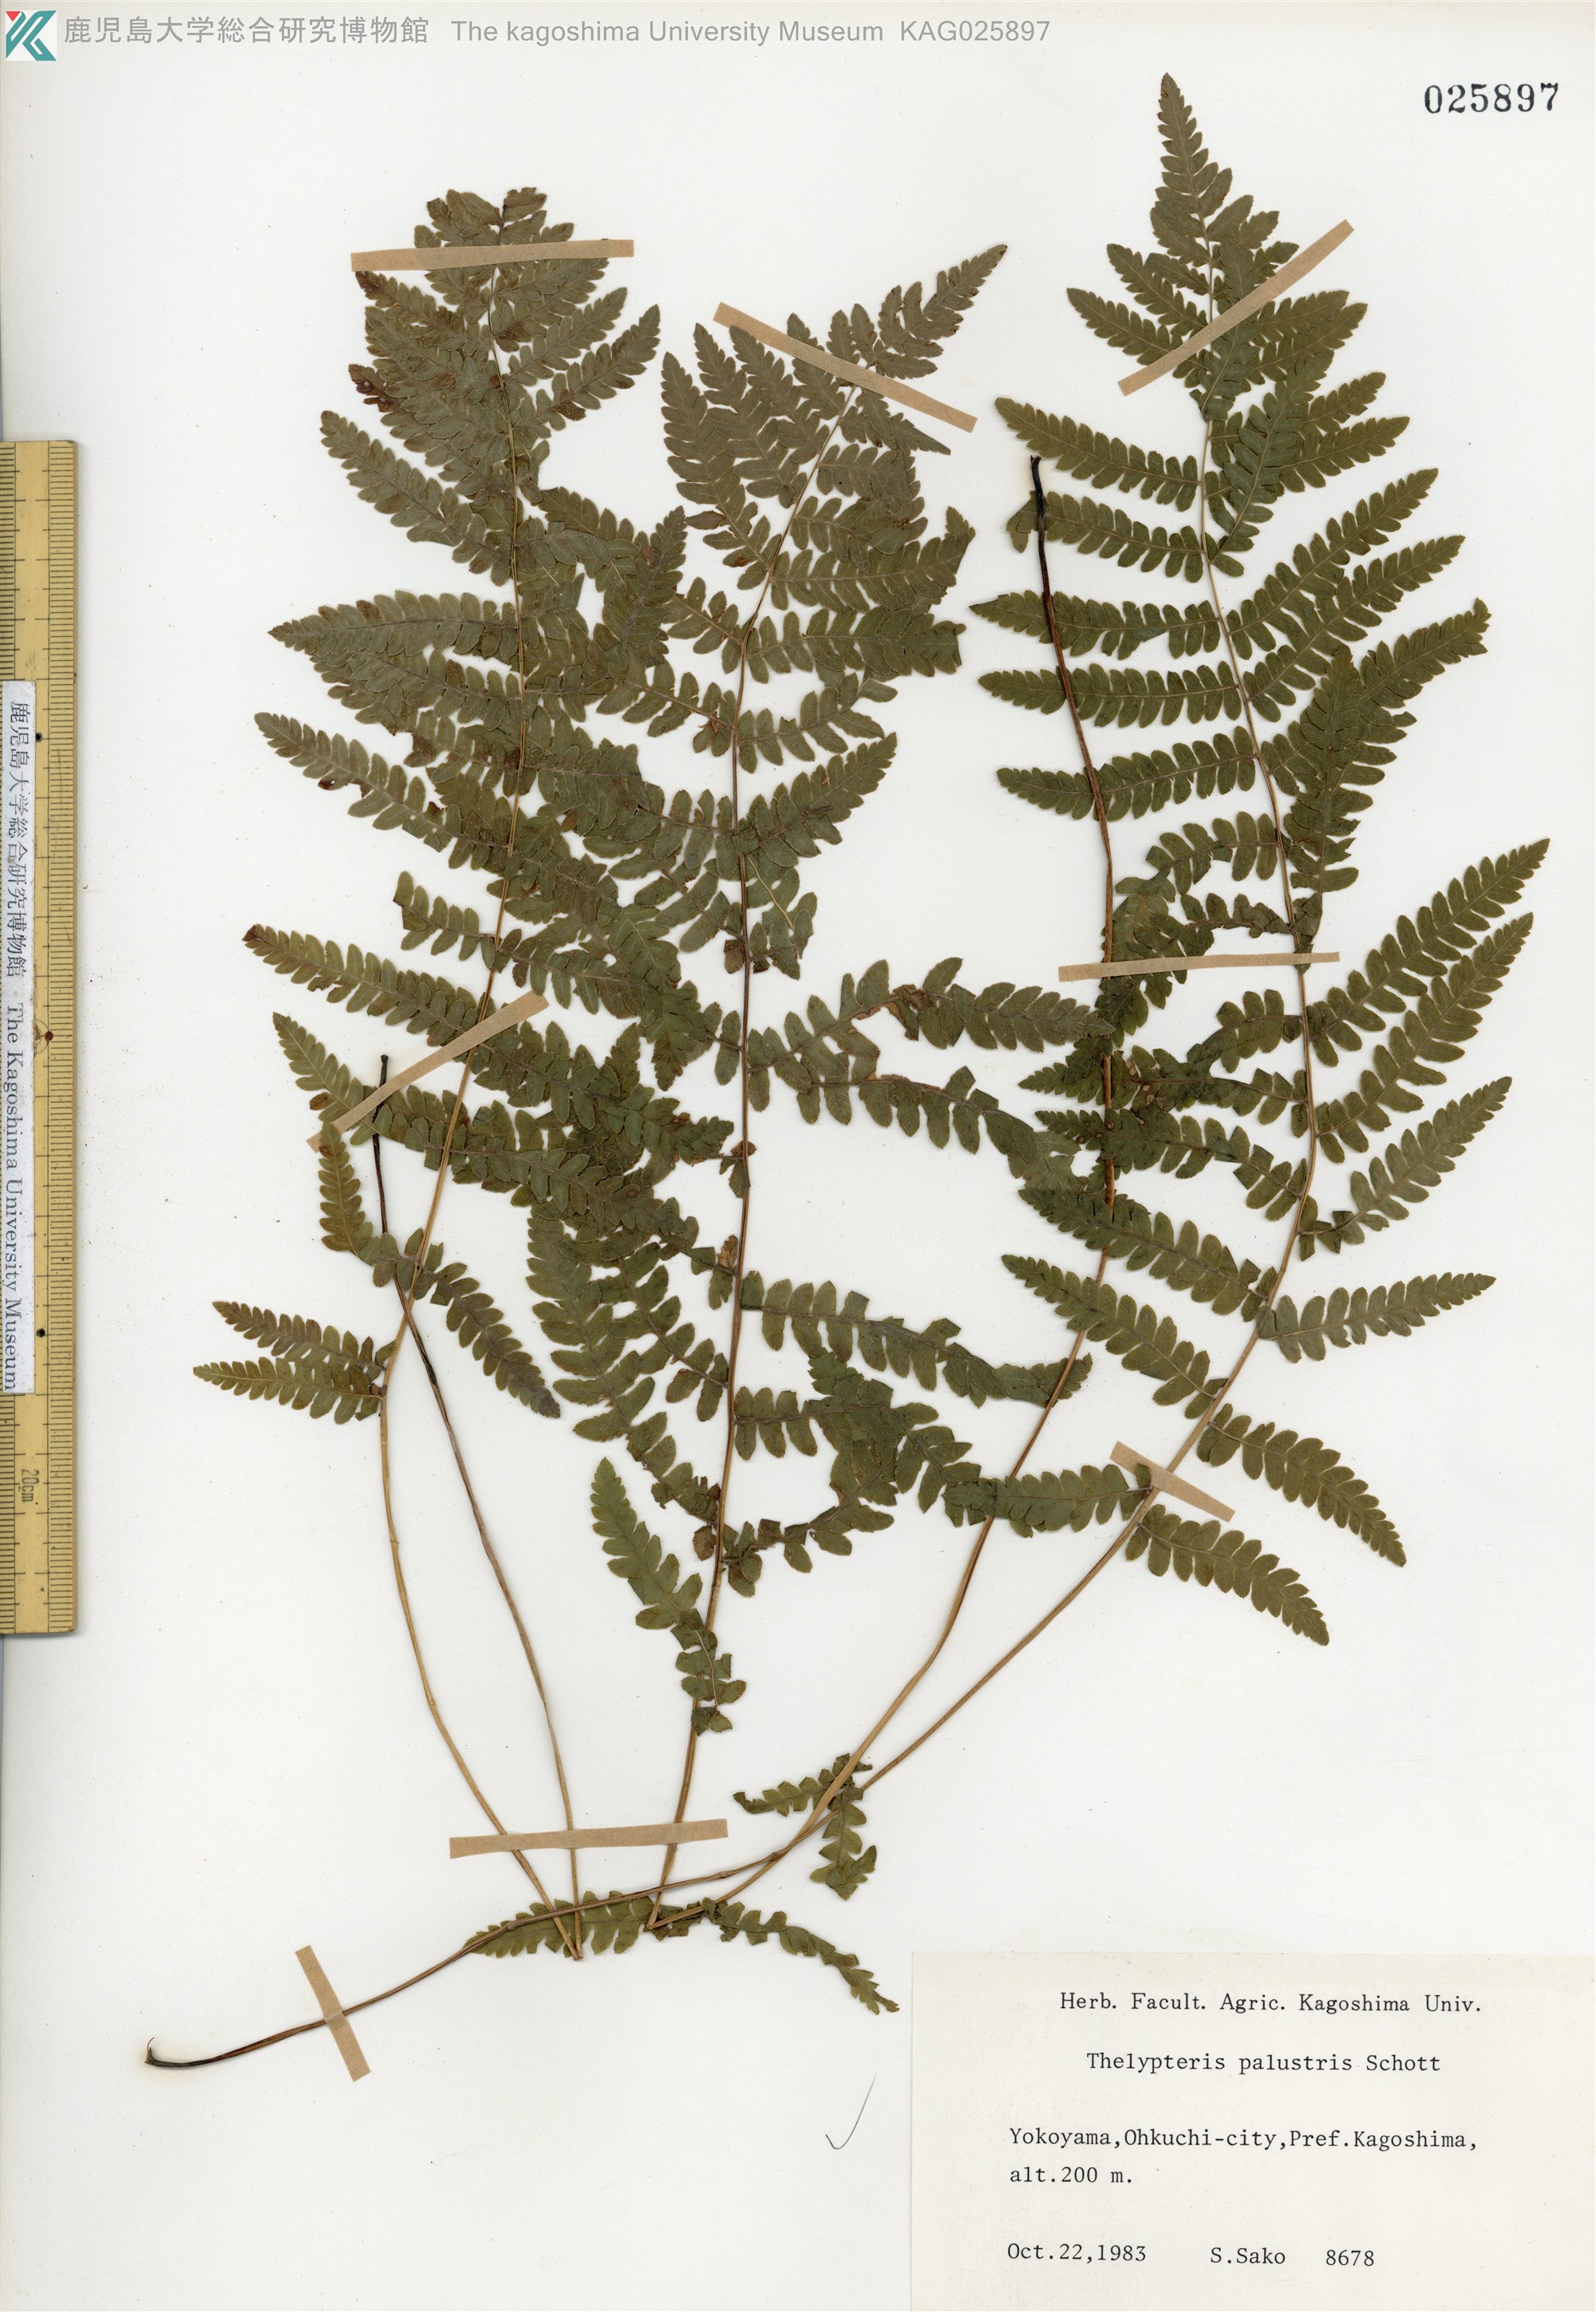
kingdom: Plantae
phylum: Tracheophyta
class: Polypodiopsida
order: Polypodiales
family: Thelypteridaceae
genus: Thelypteris
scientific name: Thelypteris palustris
